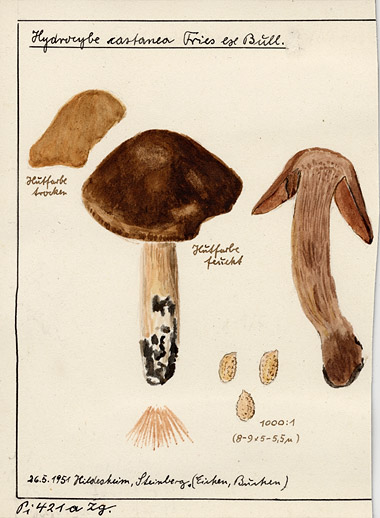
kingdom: Fungi
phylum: Basidiomycota
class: Agaricomycetes
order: Agaricales
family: Cortinariaceae
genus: Cortinarius
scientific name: Cortinarius castaneus
